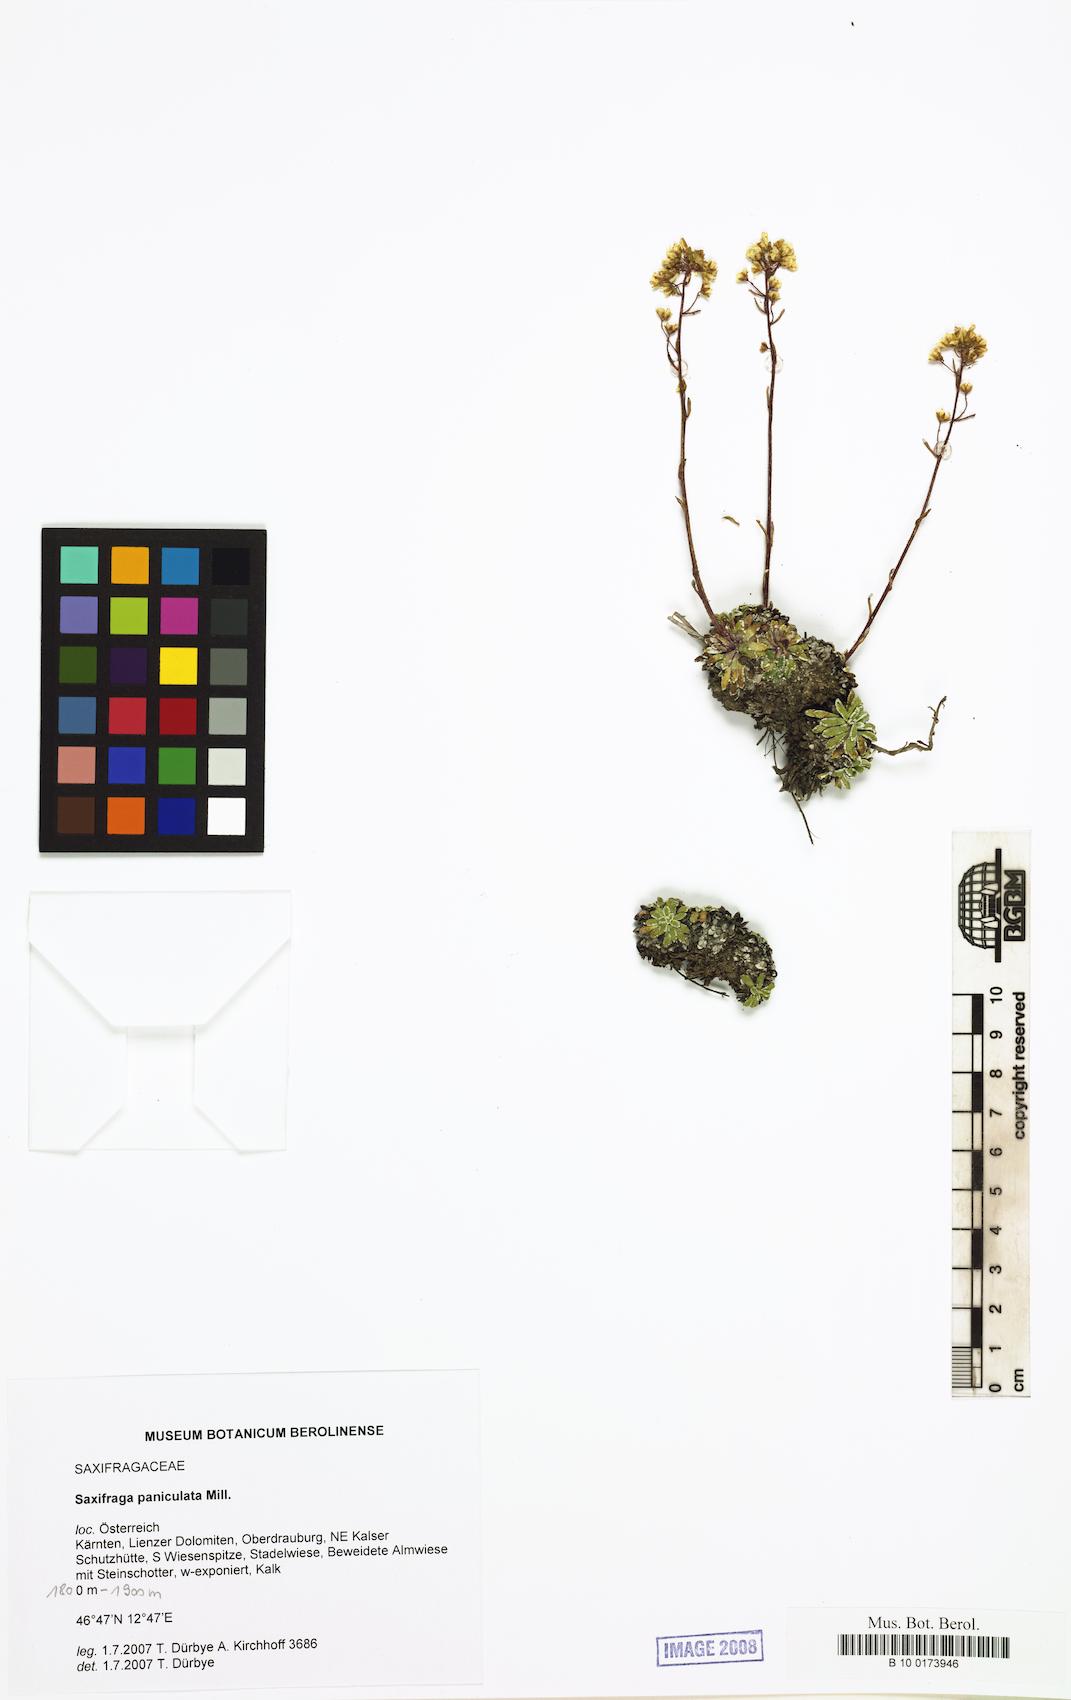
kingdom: Plantae
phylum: Tracheophyta
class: Magnoliopsida
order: Saxifragales
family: Saxifragaceae
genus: Saxifraga
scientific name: Saxifraga paniculata
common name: Livelong saxifrage
